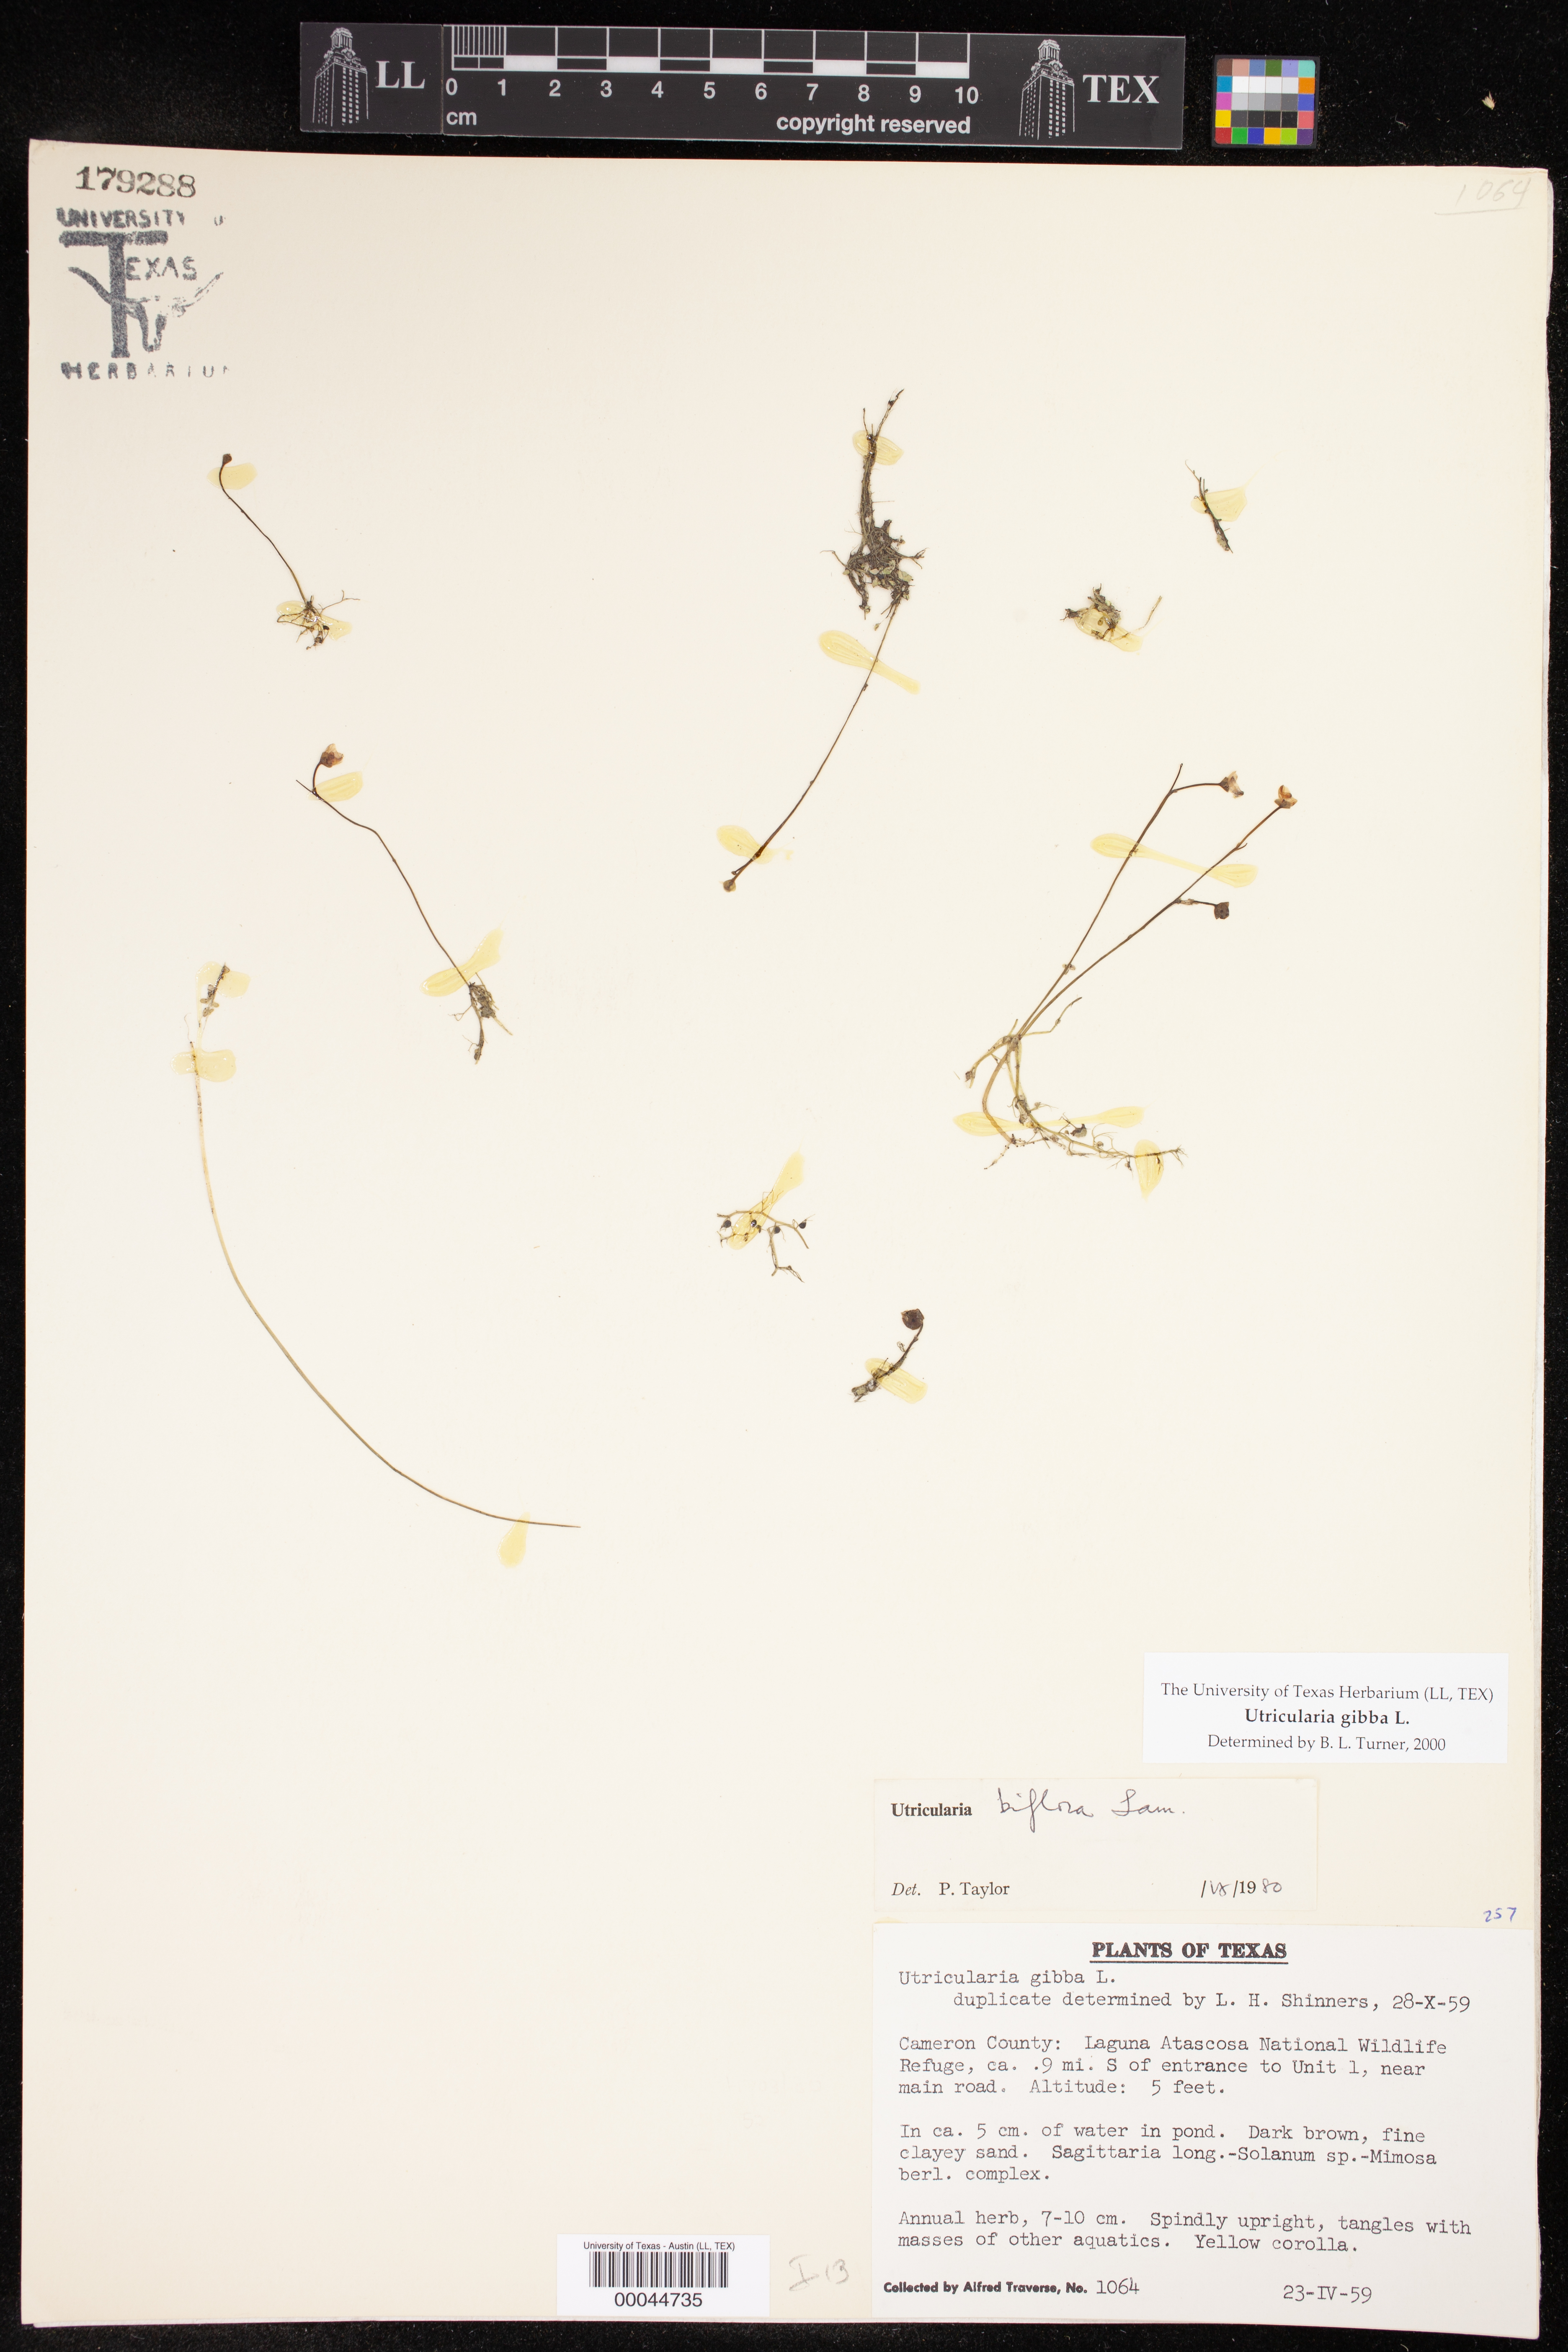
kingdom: Plantae
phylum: Tracheophyta
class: Magnoliopsida
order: Lamiales
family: Lentibulariaceae
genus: Utricularia
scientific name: Utricularia gibba
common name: Humped bladderwort
